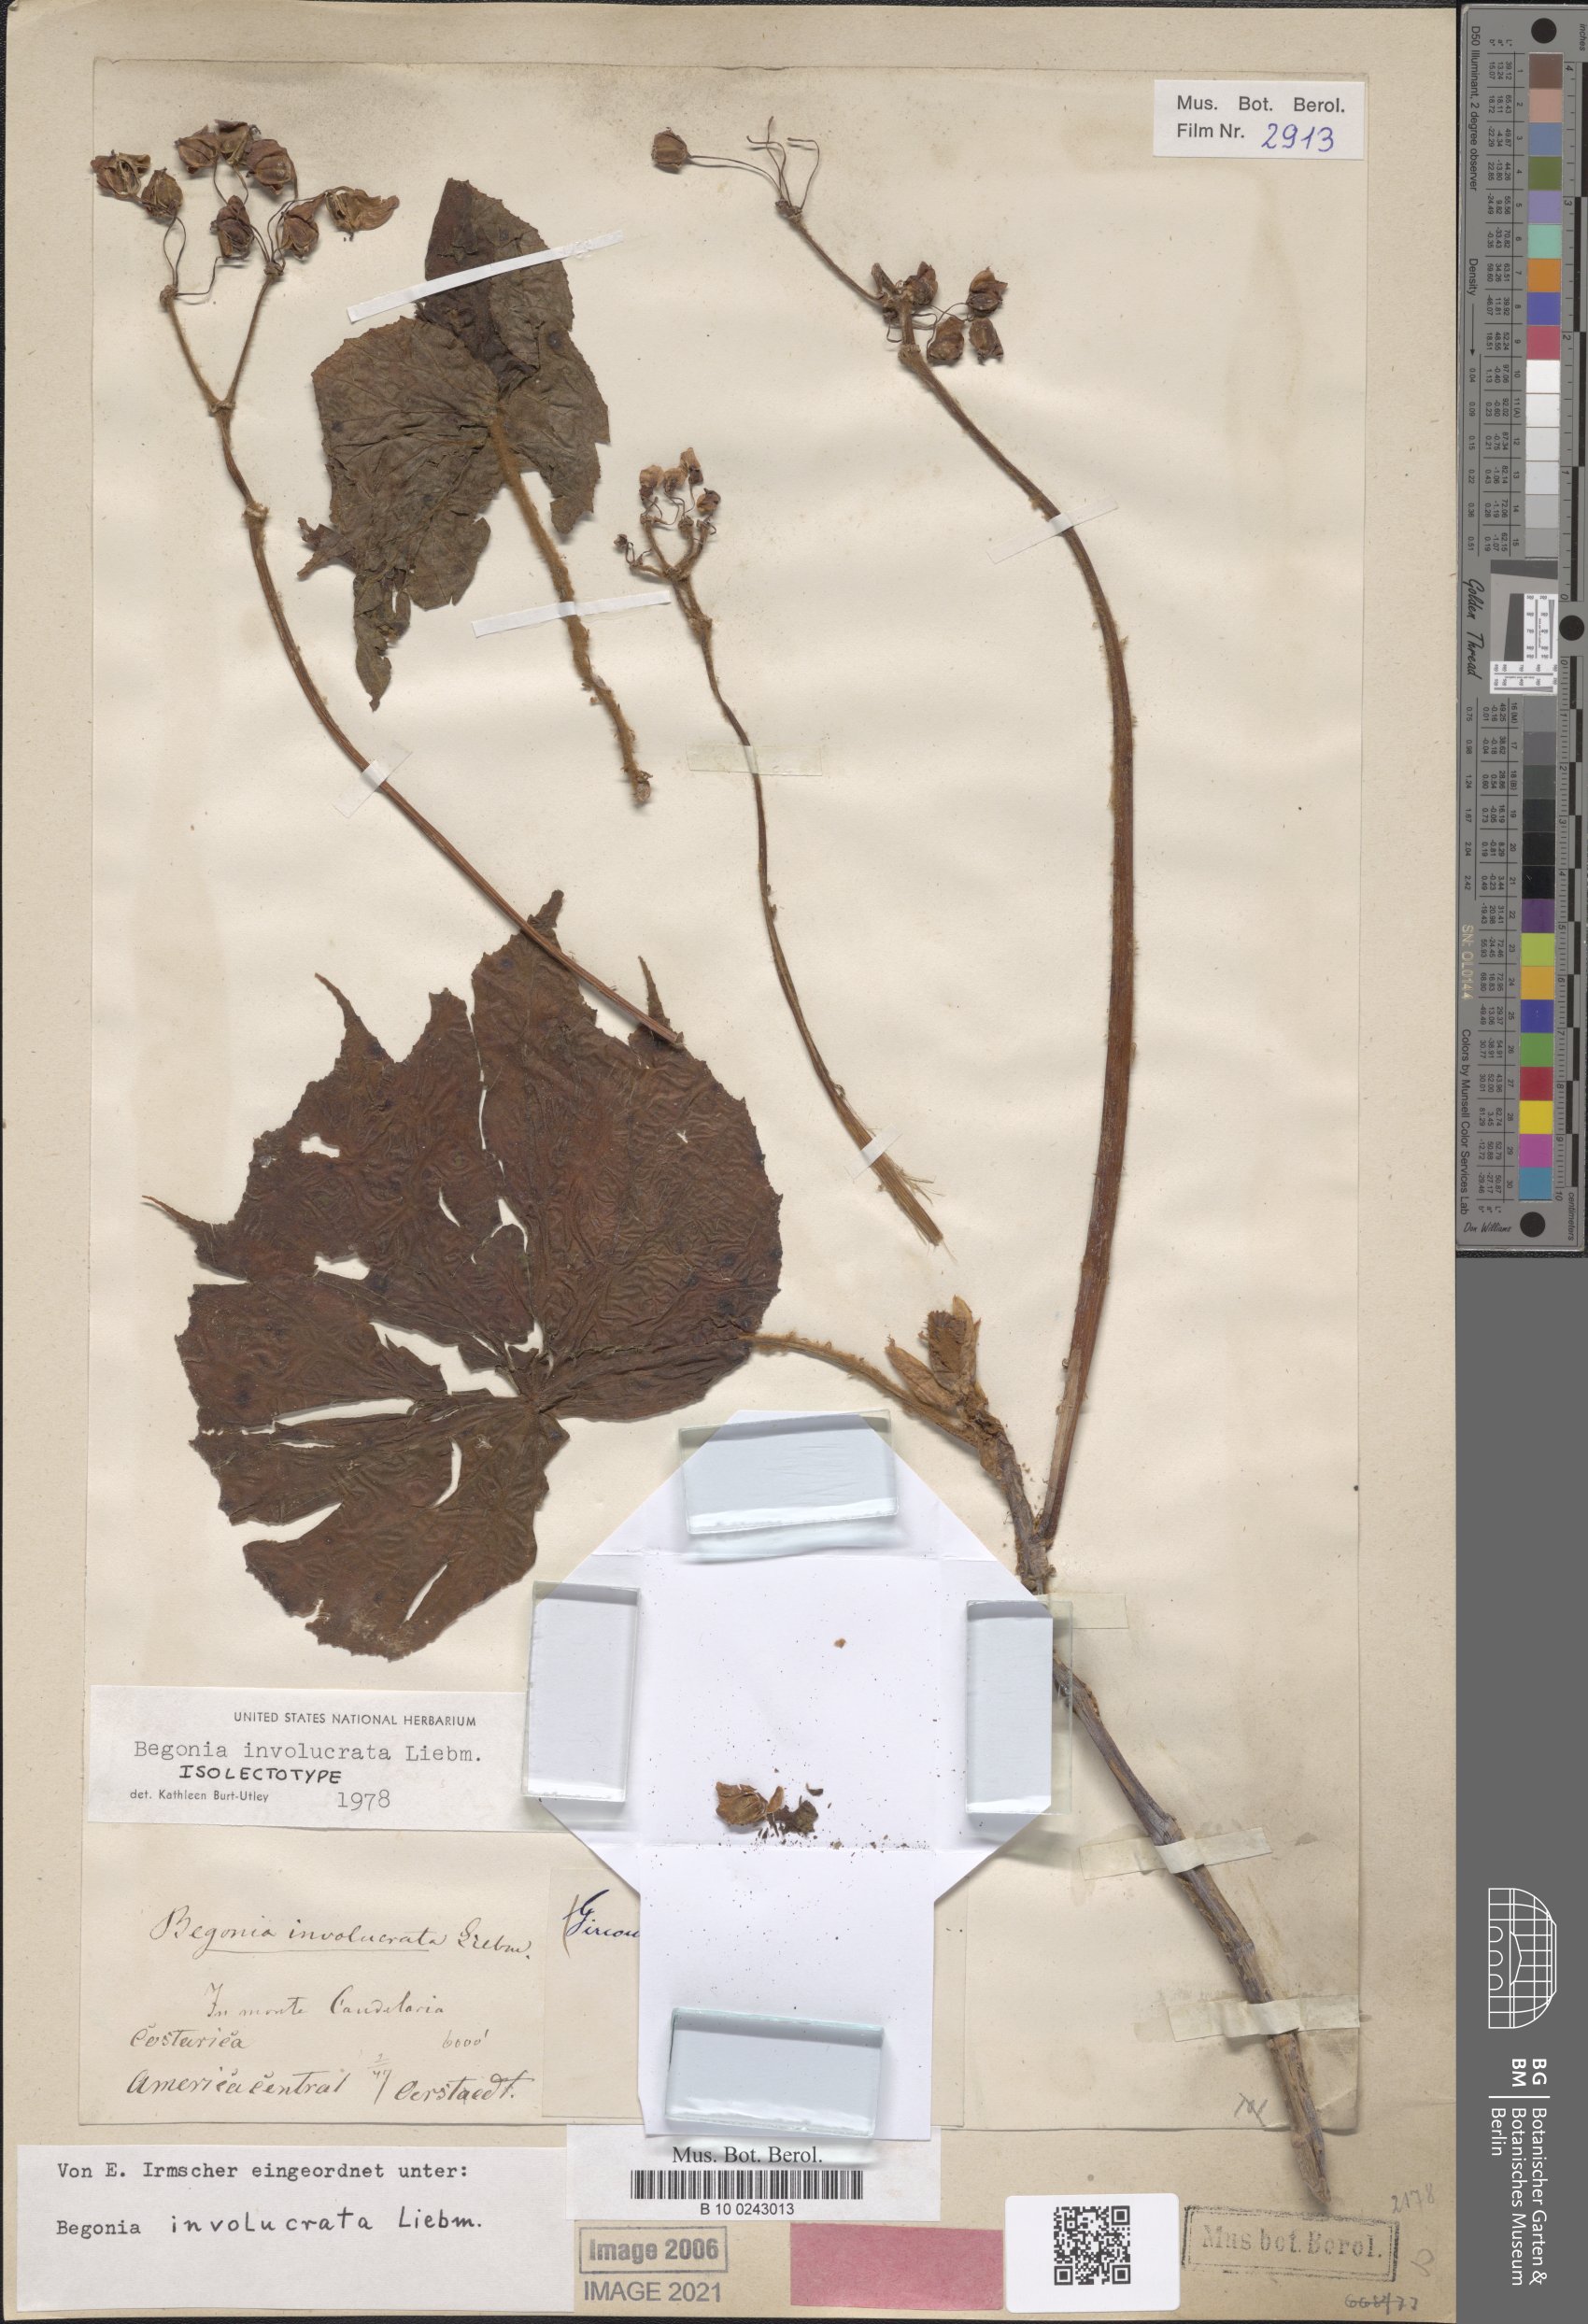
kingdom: Plantae
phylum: Tracheophyta
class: Magnoliopsida
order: Cucurbitales
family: Begoniaceae
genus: Begonia
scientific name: Begonia involucrata
